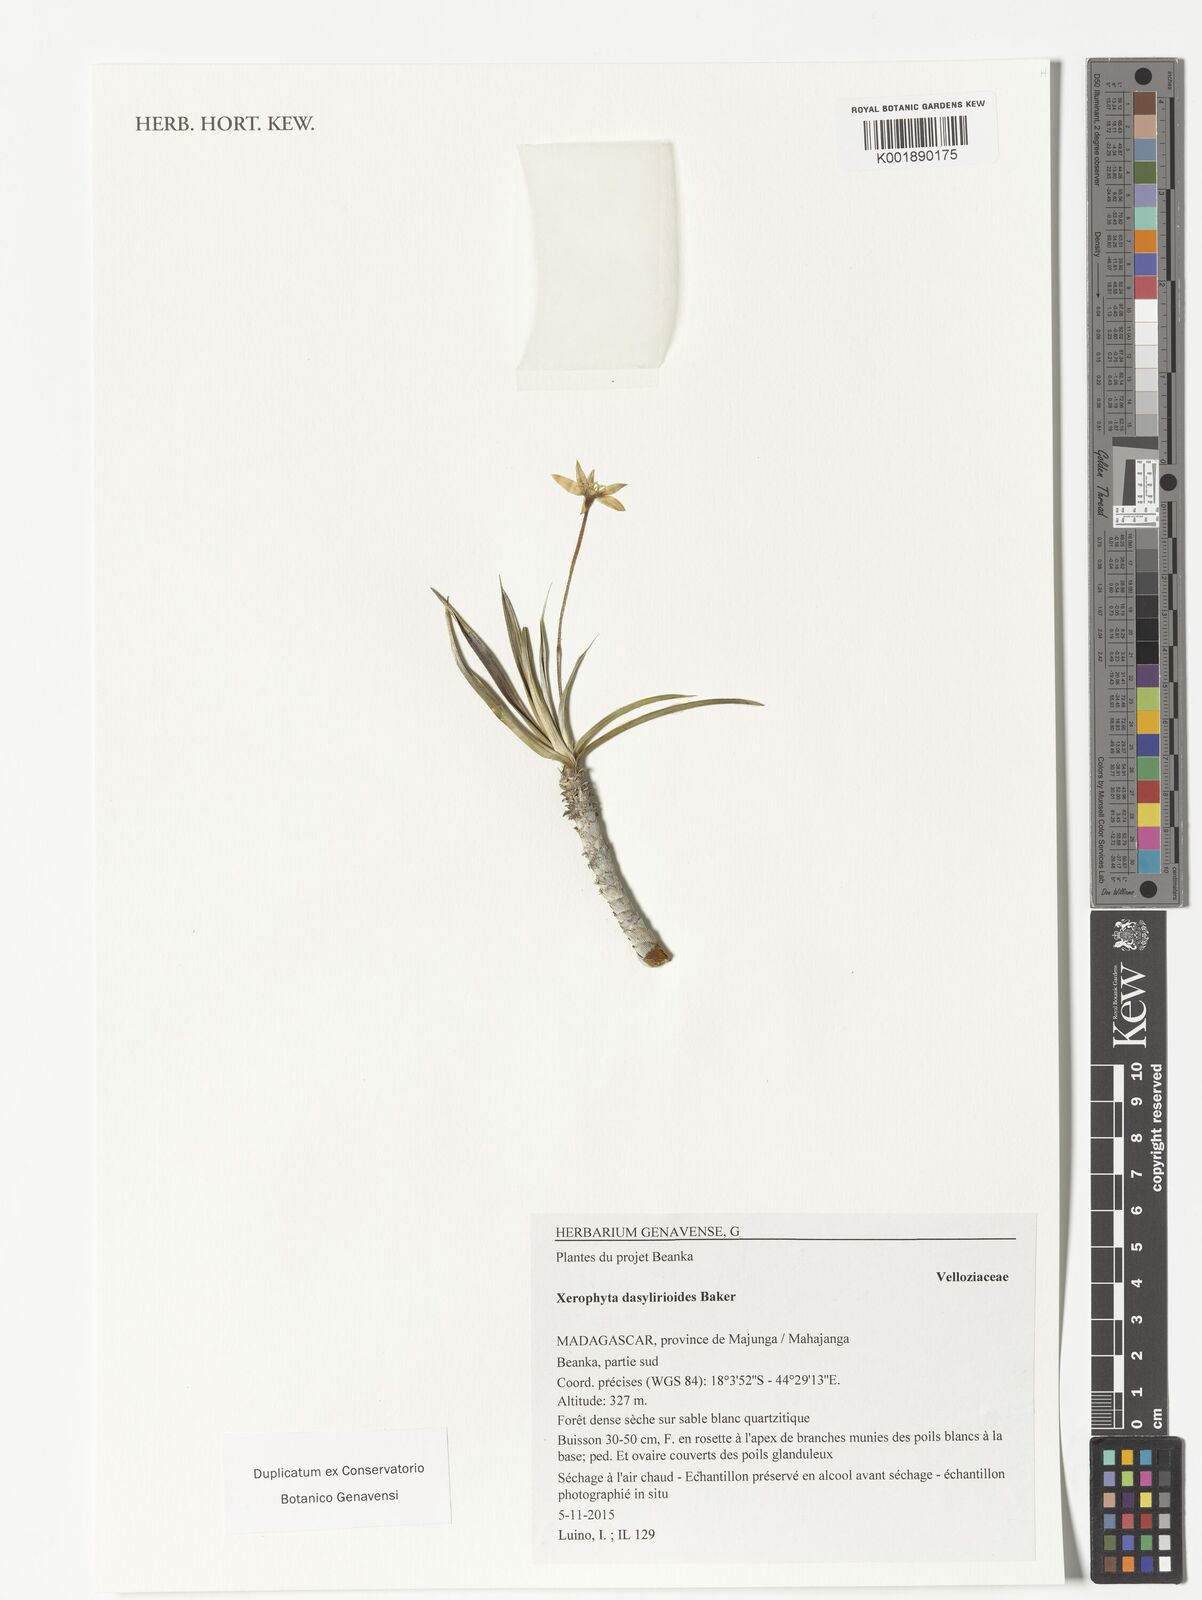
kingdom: Plantae
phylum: Tracheophyta
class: Liliopsida
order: Pandanales
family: Velloziaceae
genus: Xerophyta
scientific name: Xerophyta dasylirioides
